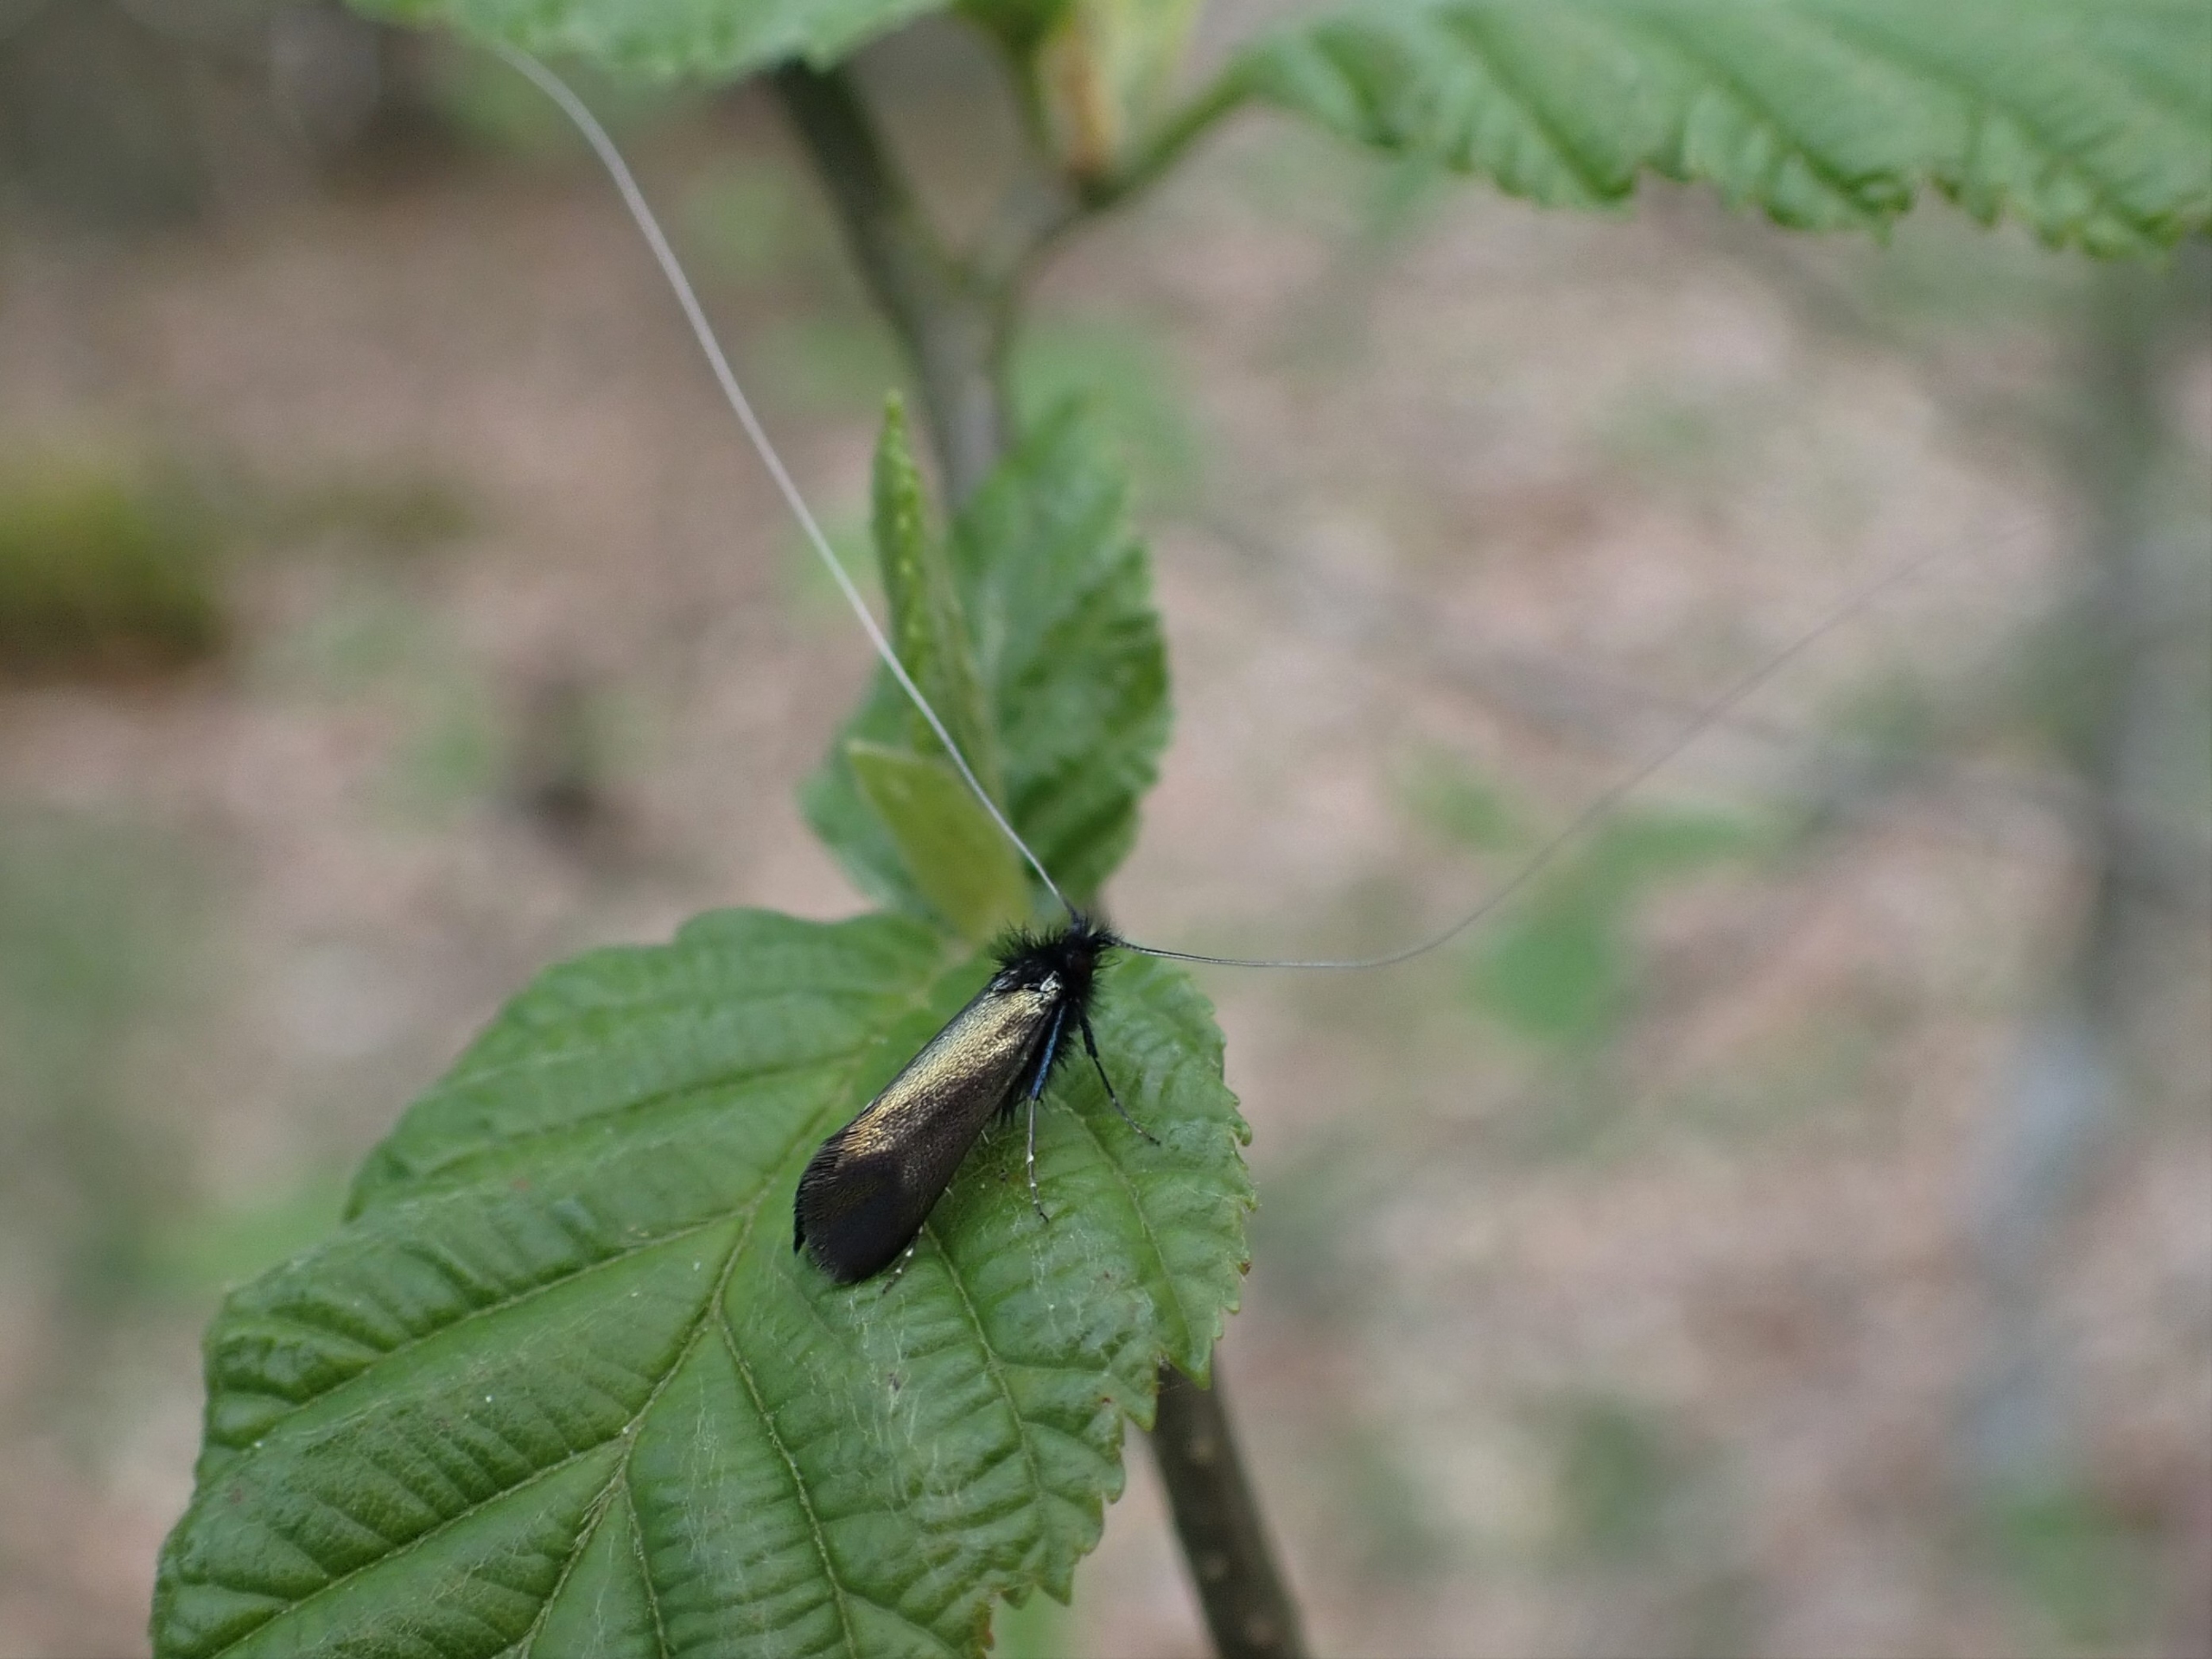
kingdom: Animalia
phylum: Arthropoda
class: Insecta
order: Lepidoptera
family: Adelidae
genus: Adela
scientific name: Adela viridella
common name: Egelanghornsmøl
